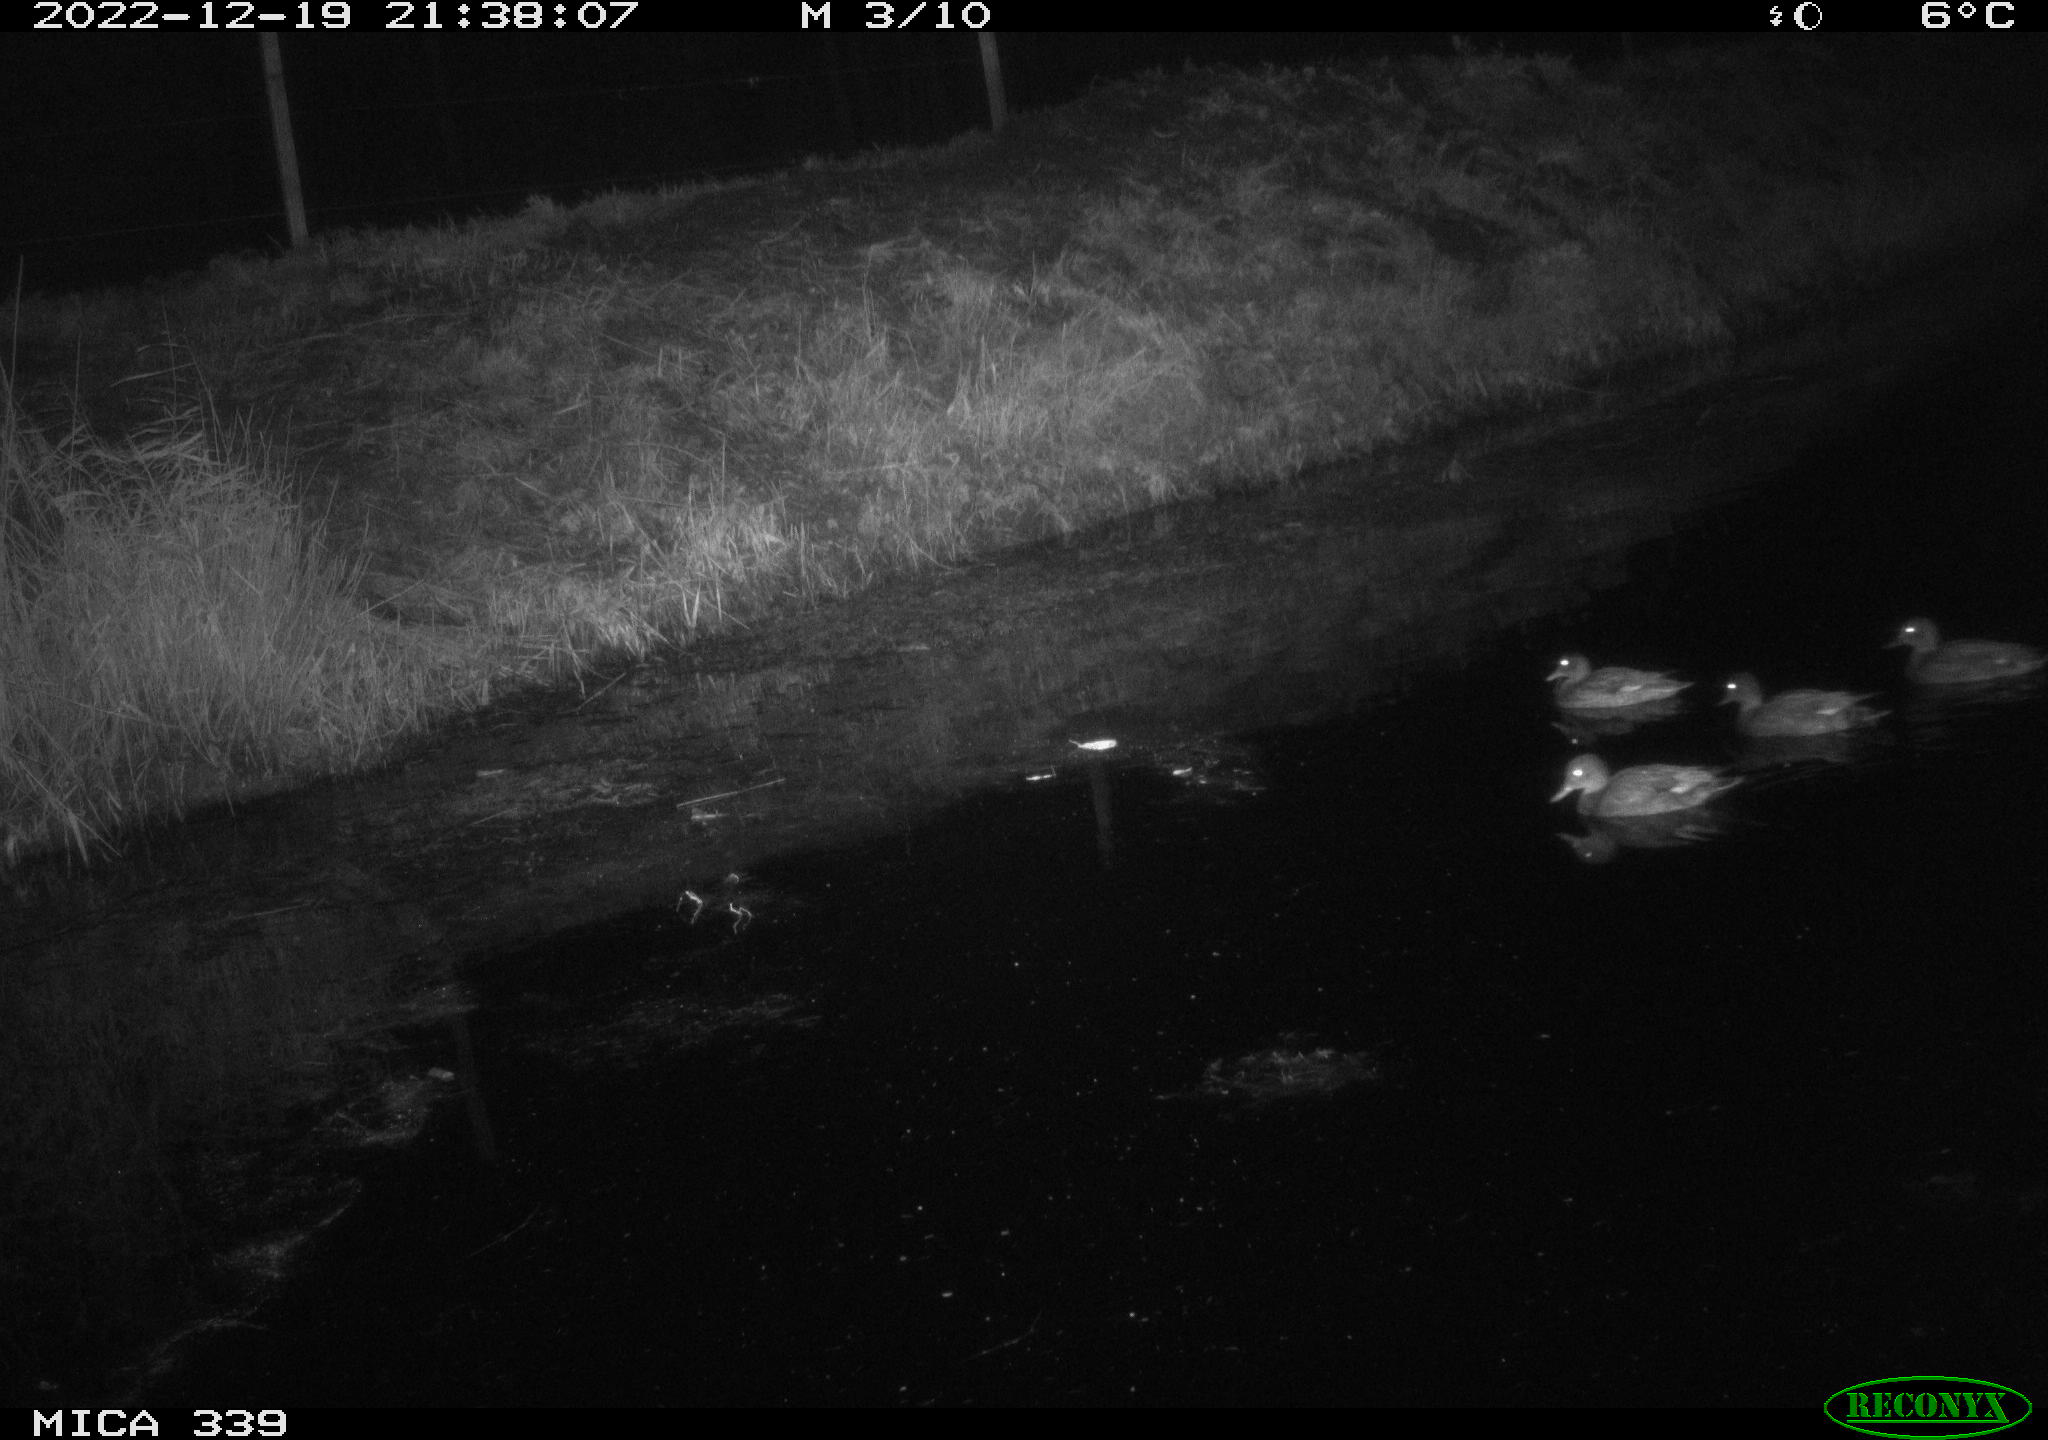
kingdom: Animalia
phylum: Chordata
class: Aves
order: Anseriformes
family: Anatidae
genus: Anas
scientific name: Anas
